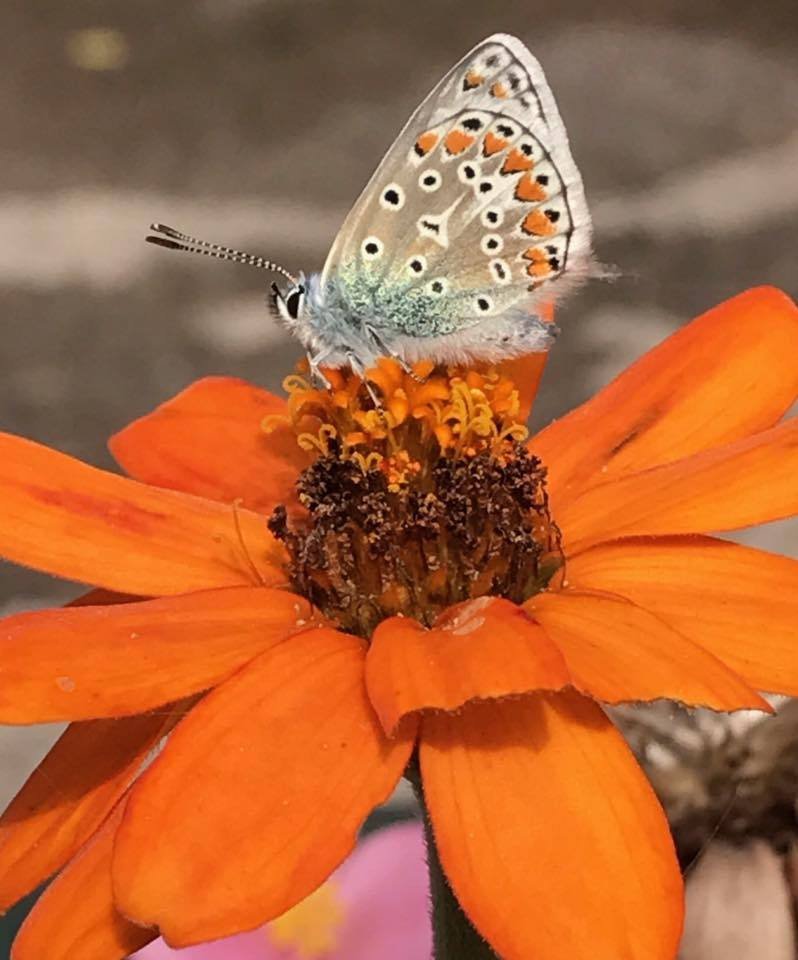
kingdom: Animalia
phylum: Arthropoda
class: Insecta
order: Lepidoptera
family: Lycaenidae
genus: Polyommatus
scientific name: Polyommatus icarus
